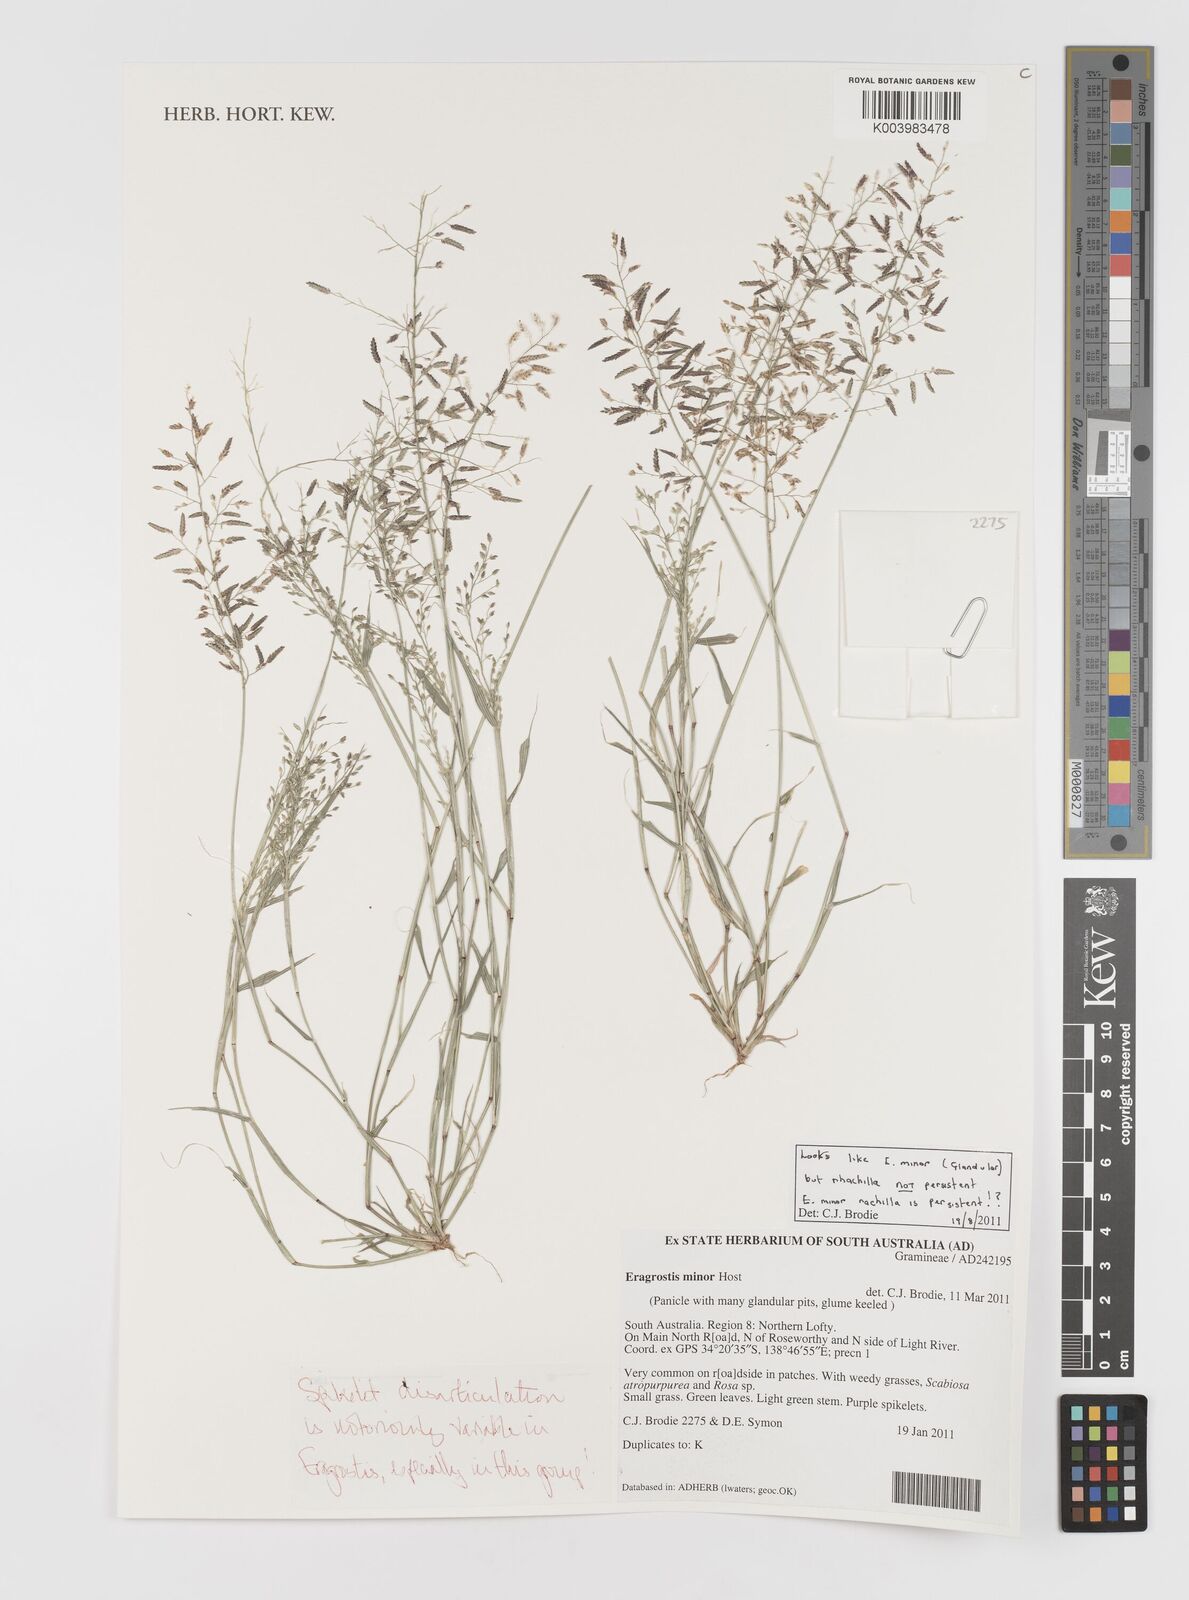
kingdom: Plantae
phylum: Tracheophyta
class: Liliopsida
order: Poales
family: Poaceae
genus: Eragrostis
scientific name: Eragrostis minor
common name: Small love-grass
